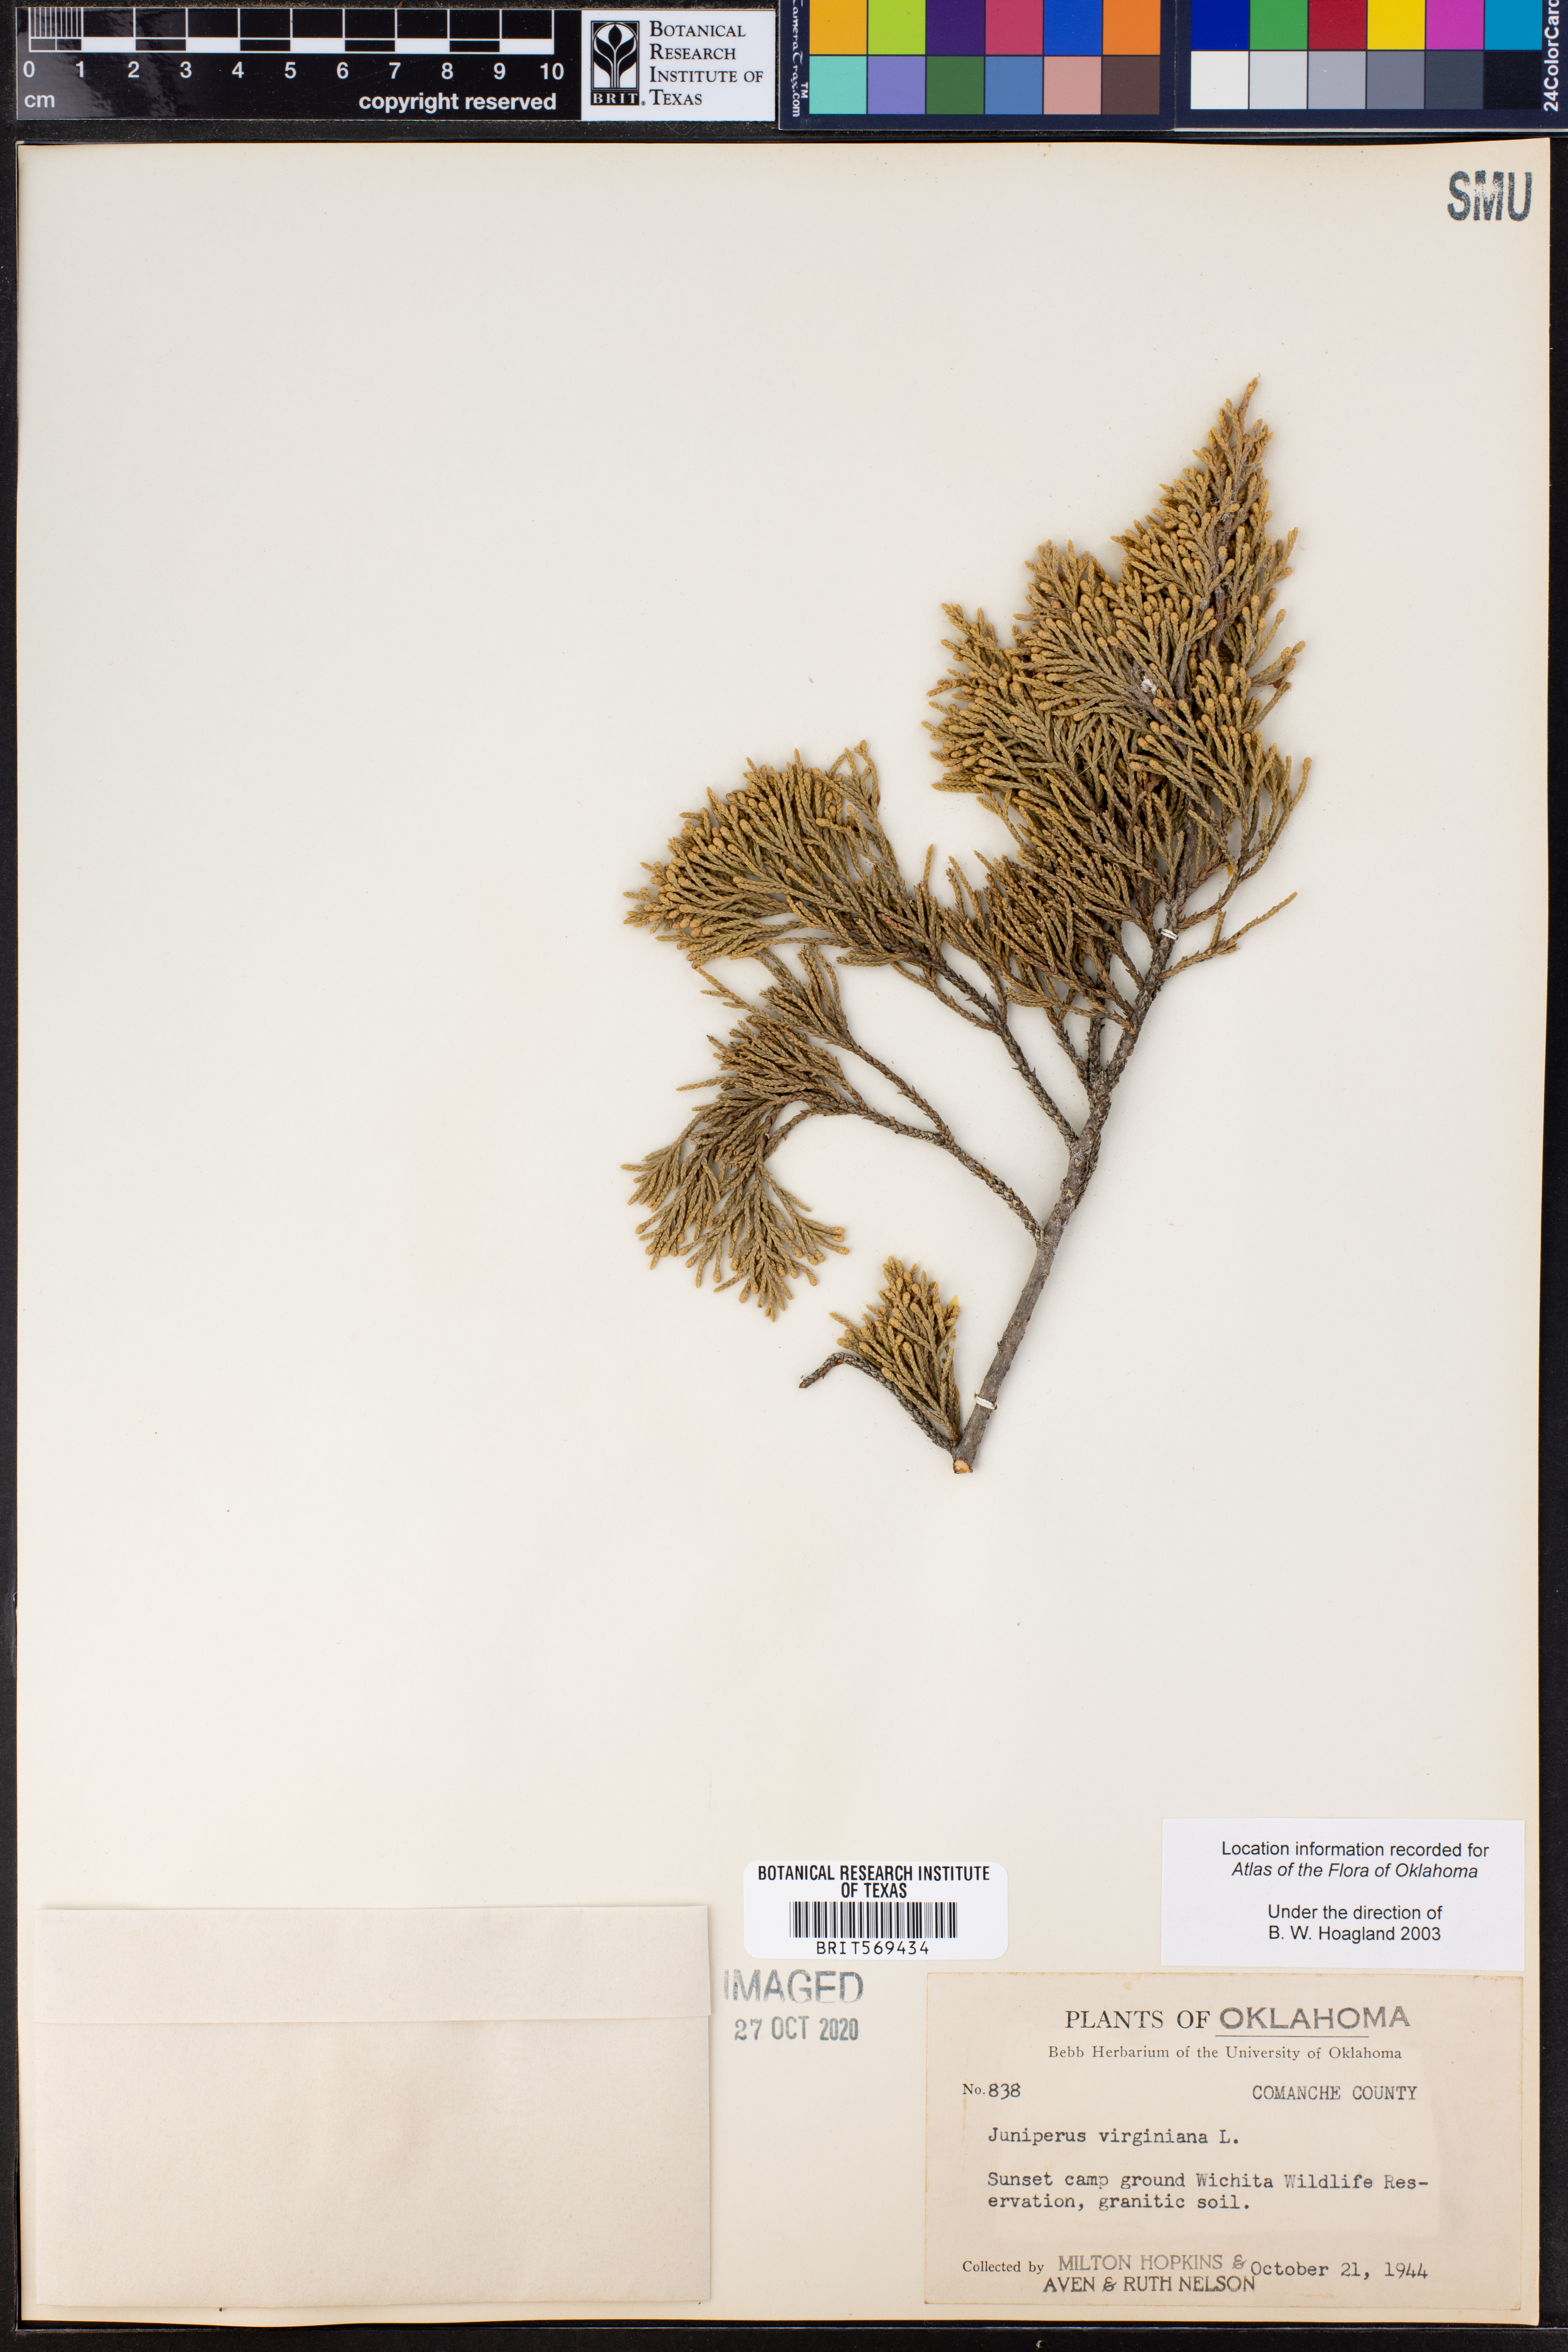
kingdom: Plantae
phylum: Tracheophyta
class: Pinopsida
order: Pinales
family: Cupressaceae
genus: Juniperus
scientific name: Juniperus virginiana
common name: Red juniper
